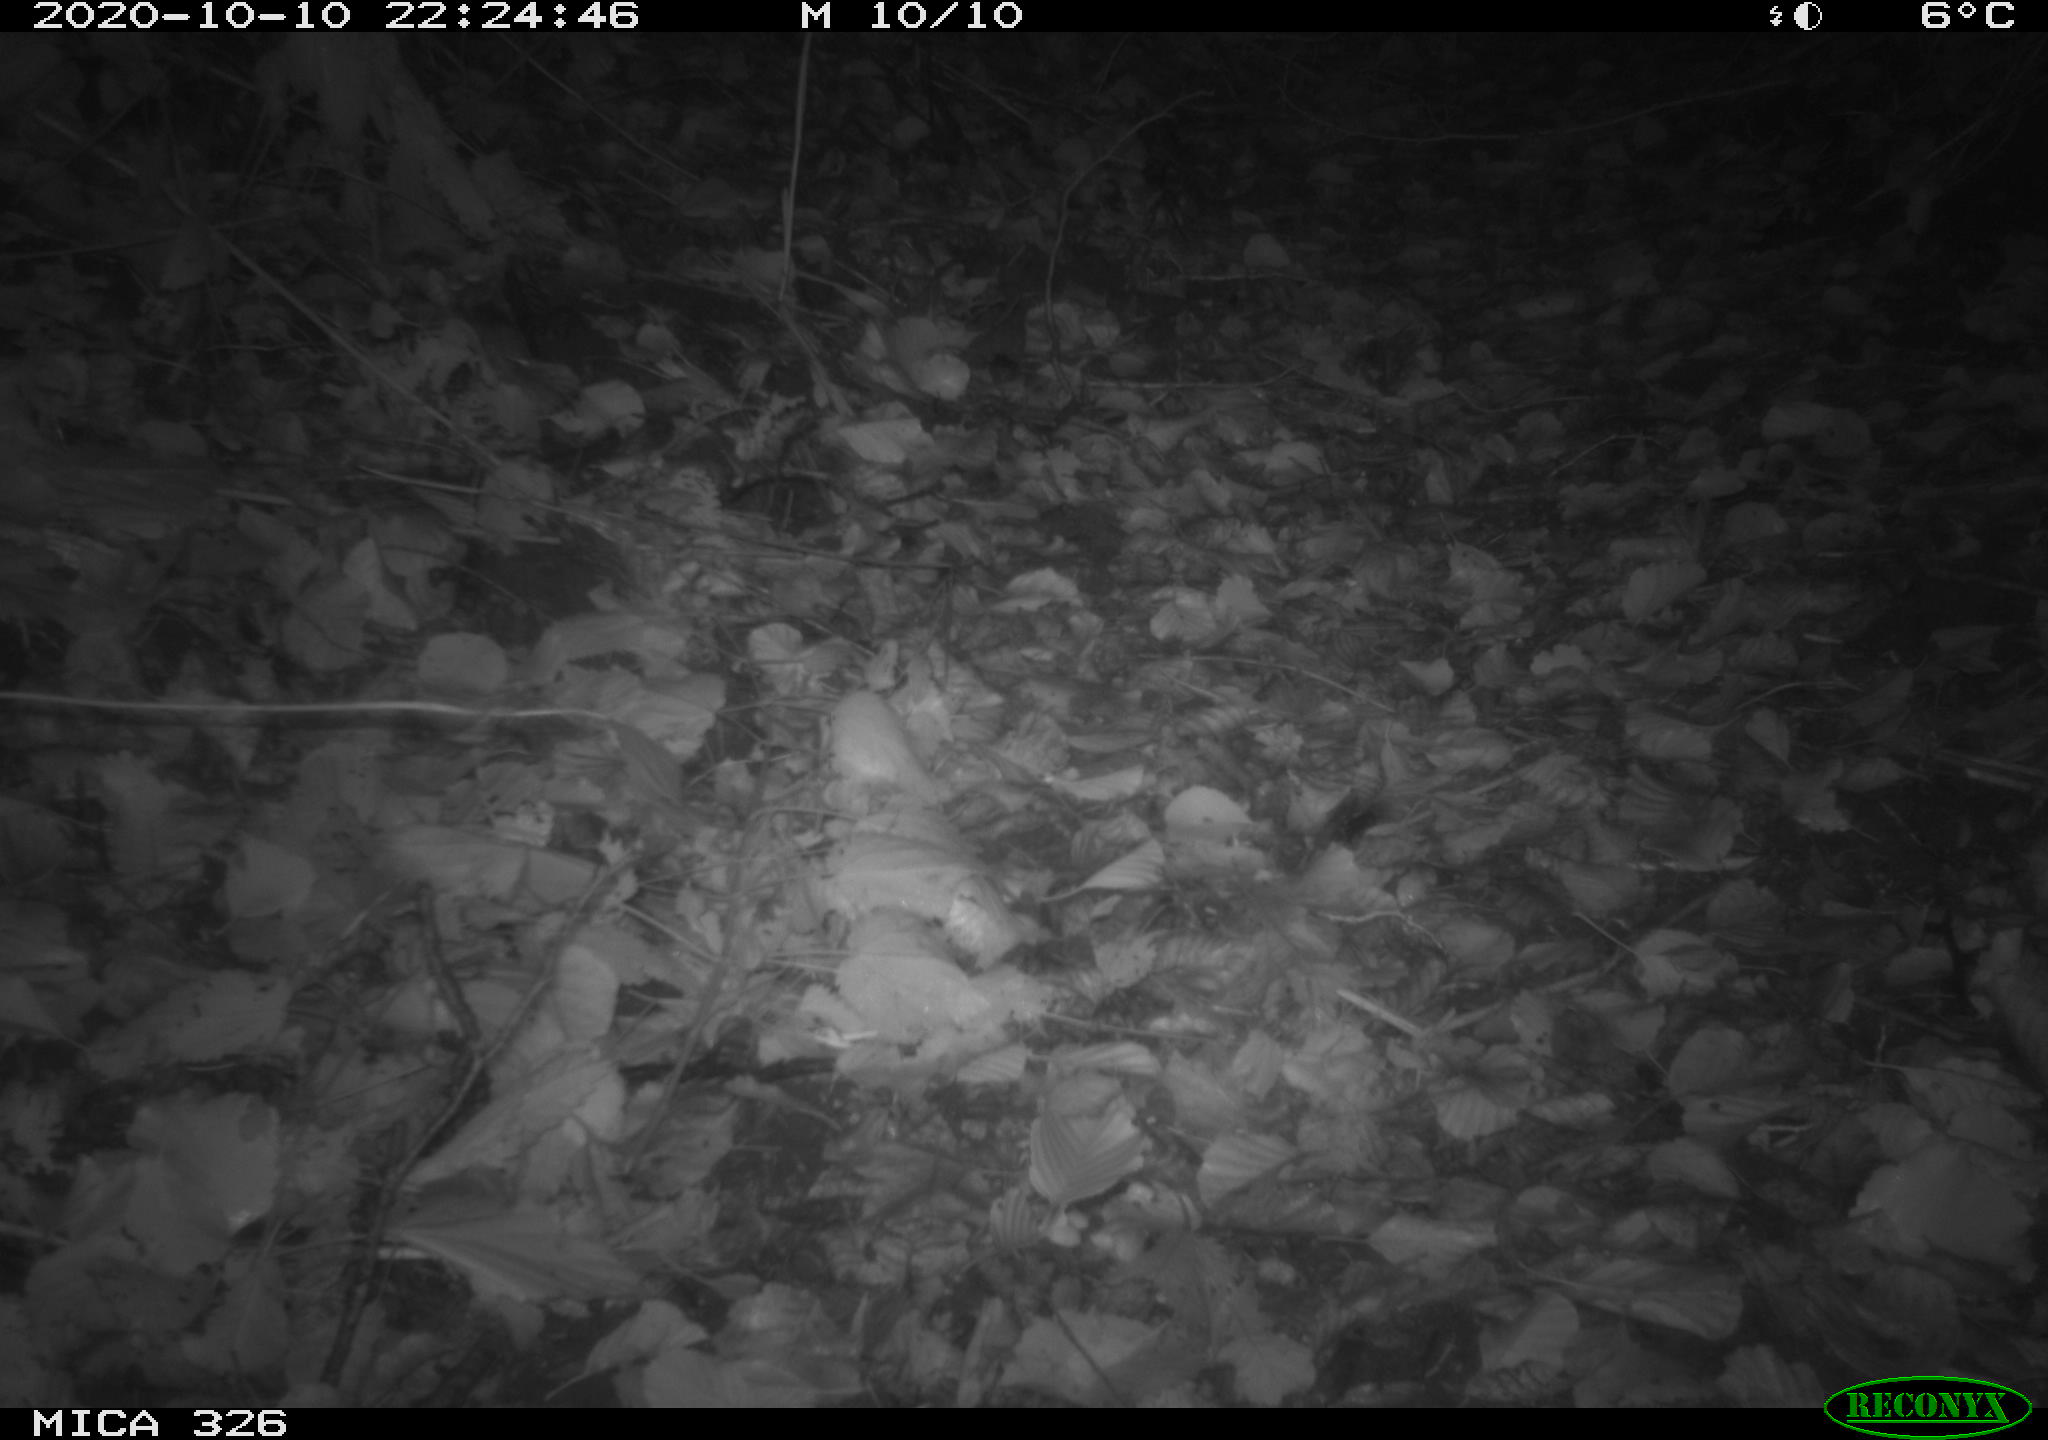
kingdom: Animalia
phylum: Chordata
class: Mammalia
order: Rodentia
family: Myocastoridae
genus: Myocastor
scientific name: Myocastor coypus
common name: Coypu
